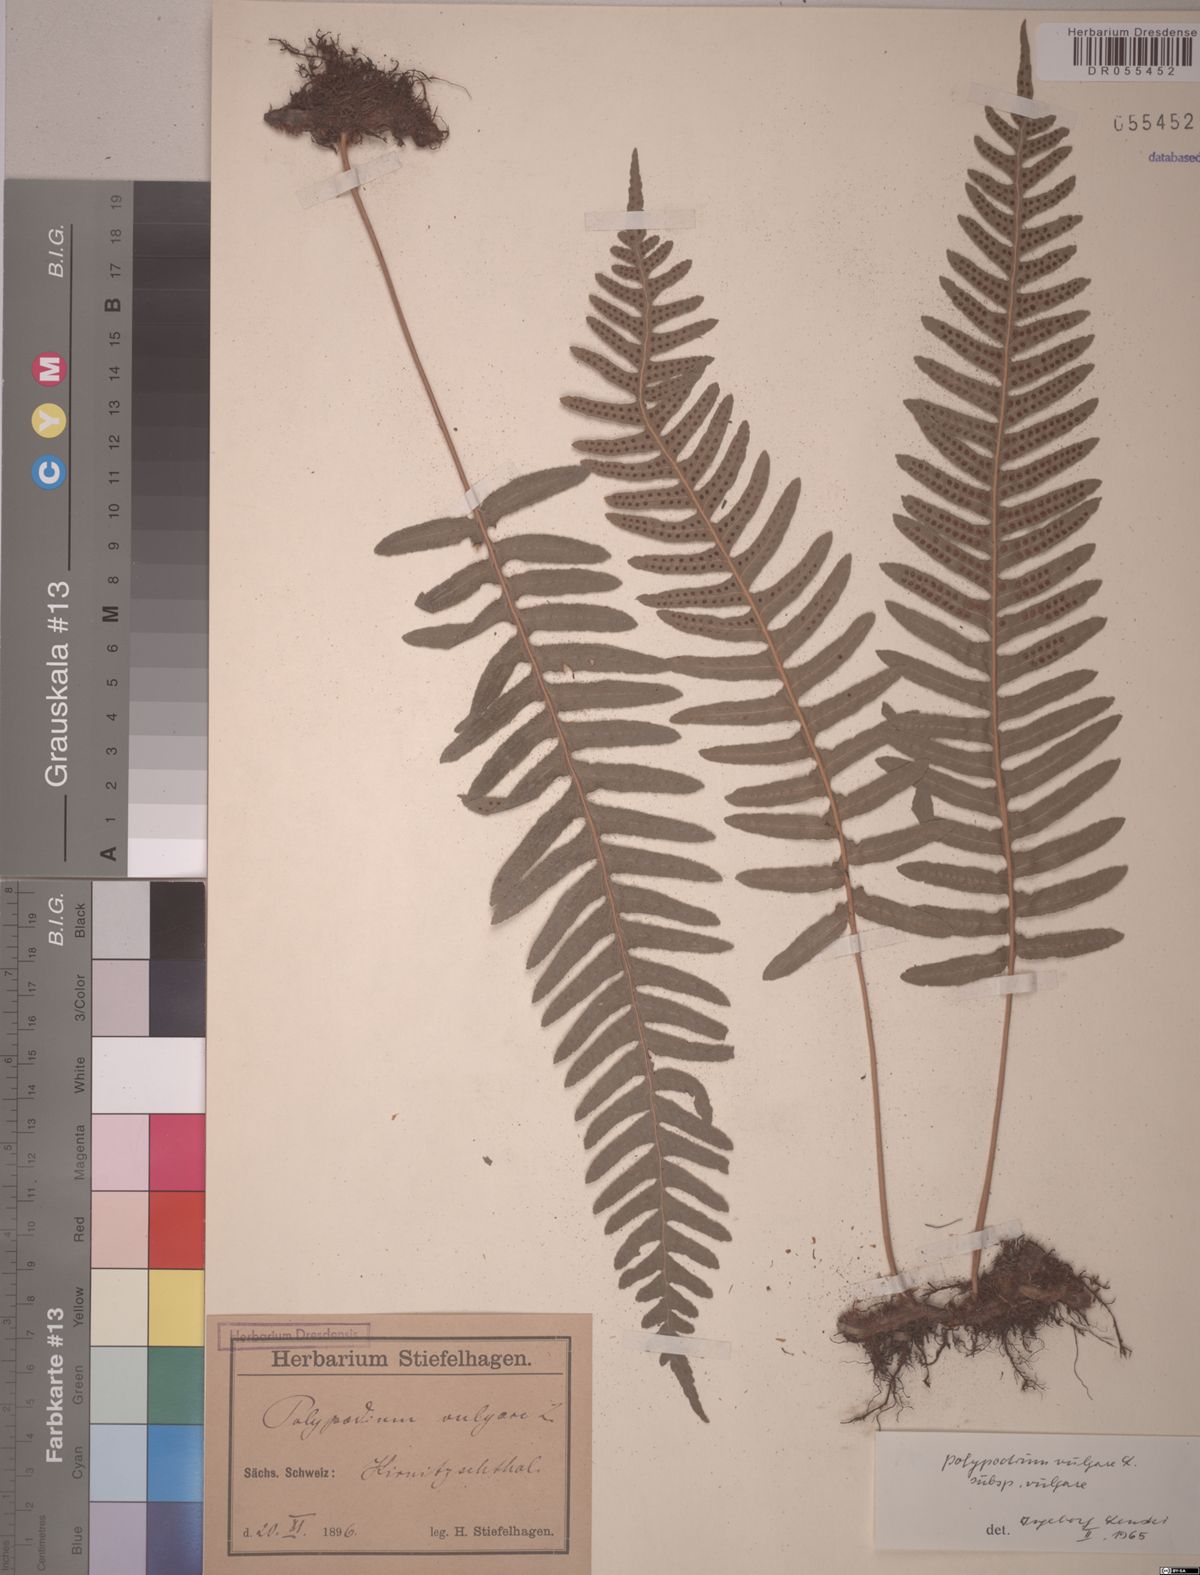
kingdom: Plantae
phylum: Tracheophyta
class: Polypodiopsida
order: Polypodiales
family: Polypodiaceae
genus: Polypodium
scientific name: Polypodium vulgare
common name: Common polypody
